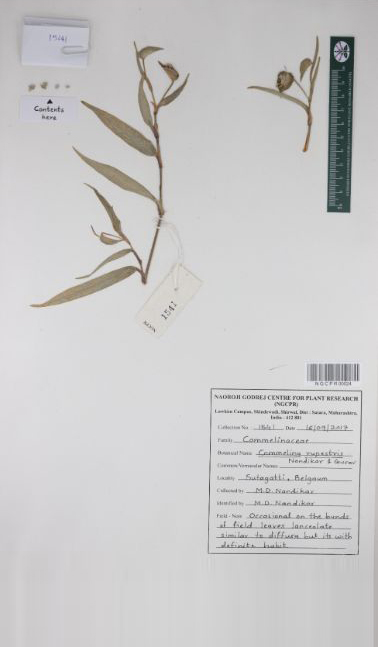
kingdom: Plantae
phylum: Tracheophyta
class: Liliopsida
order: Commelinales
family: Commelinaceae
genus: Commelina
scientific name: Commelina rupestris
